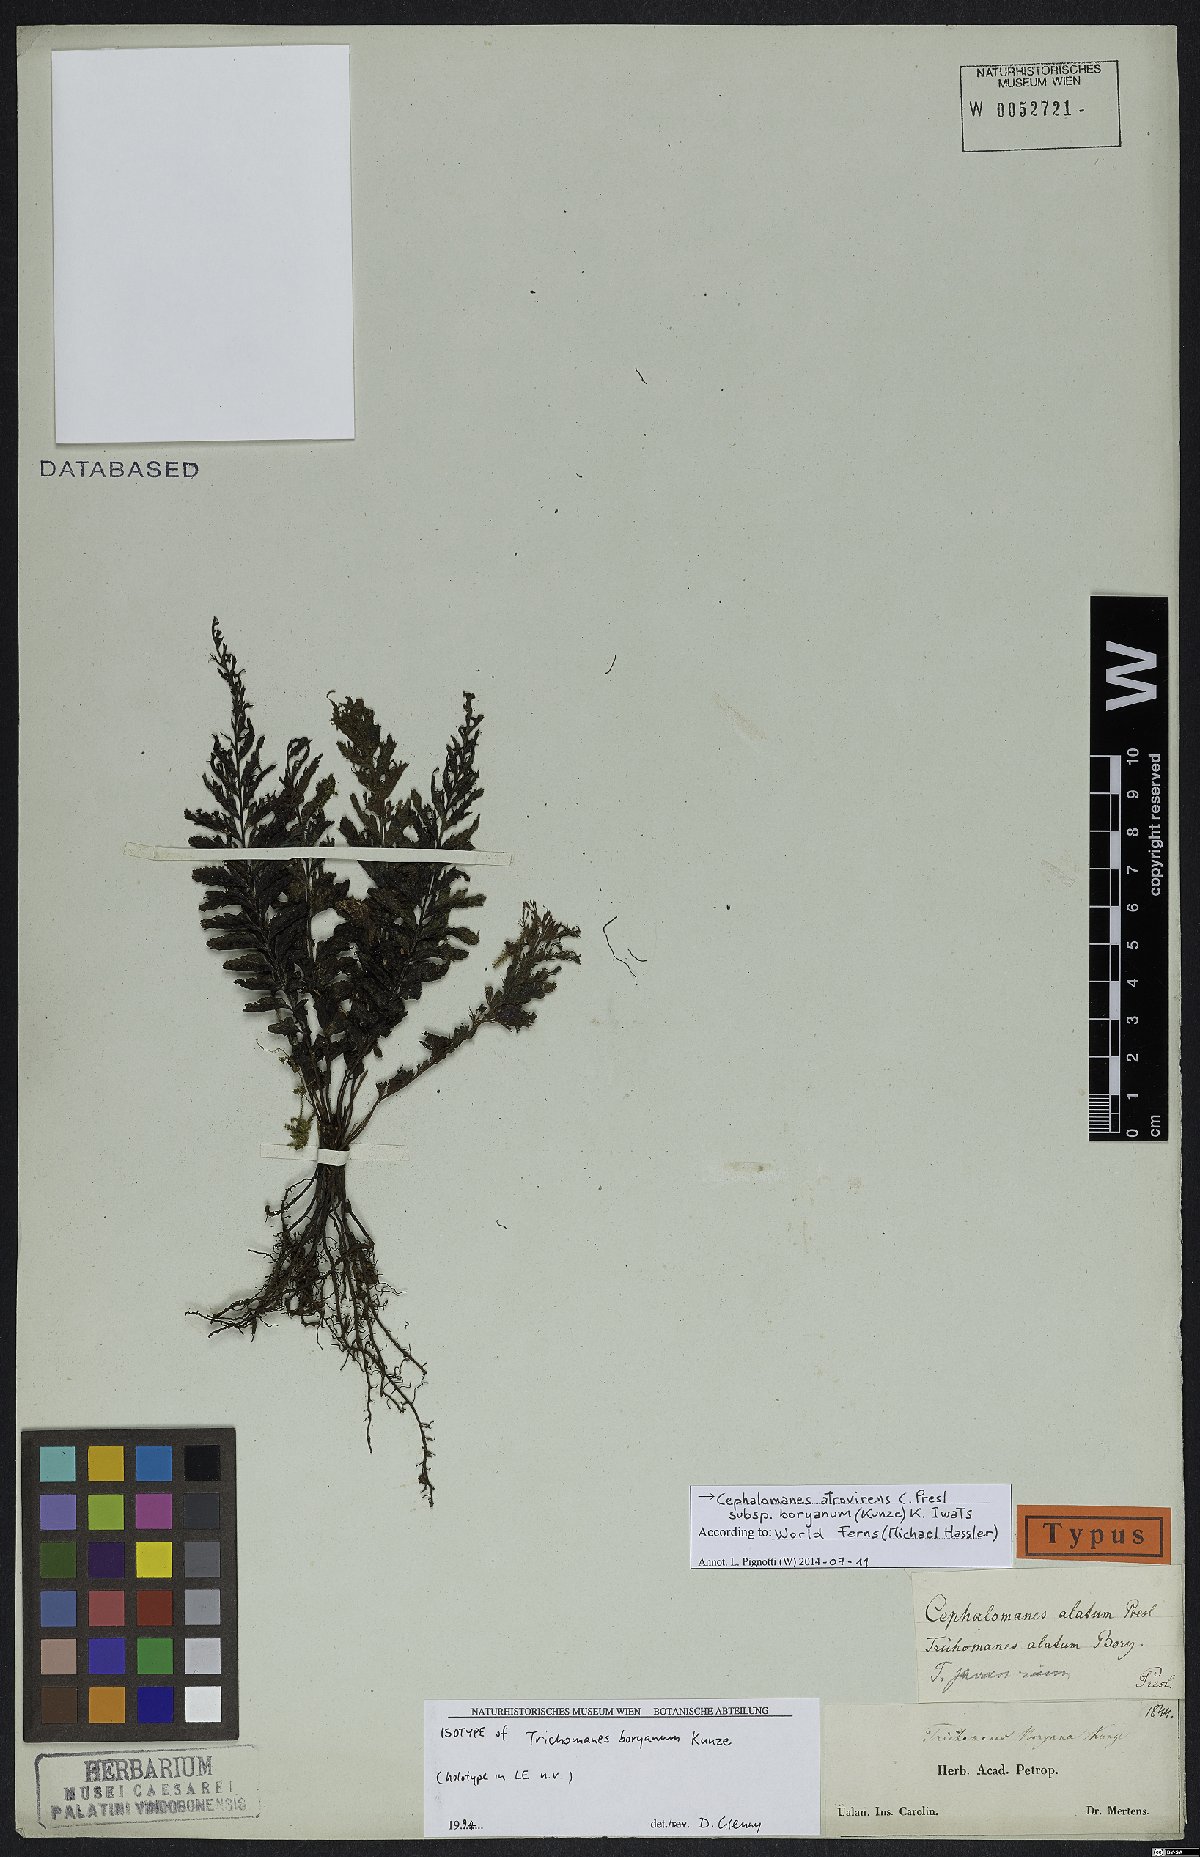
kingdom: Plantae
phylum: Tracheophyta
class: Polypodiopsida
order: Hymenophyllales
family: Hymenophyllaceae
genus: Cephalomanes
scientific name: Cephalomanes boryanum
